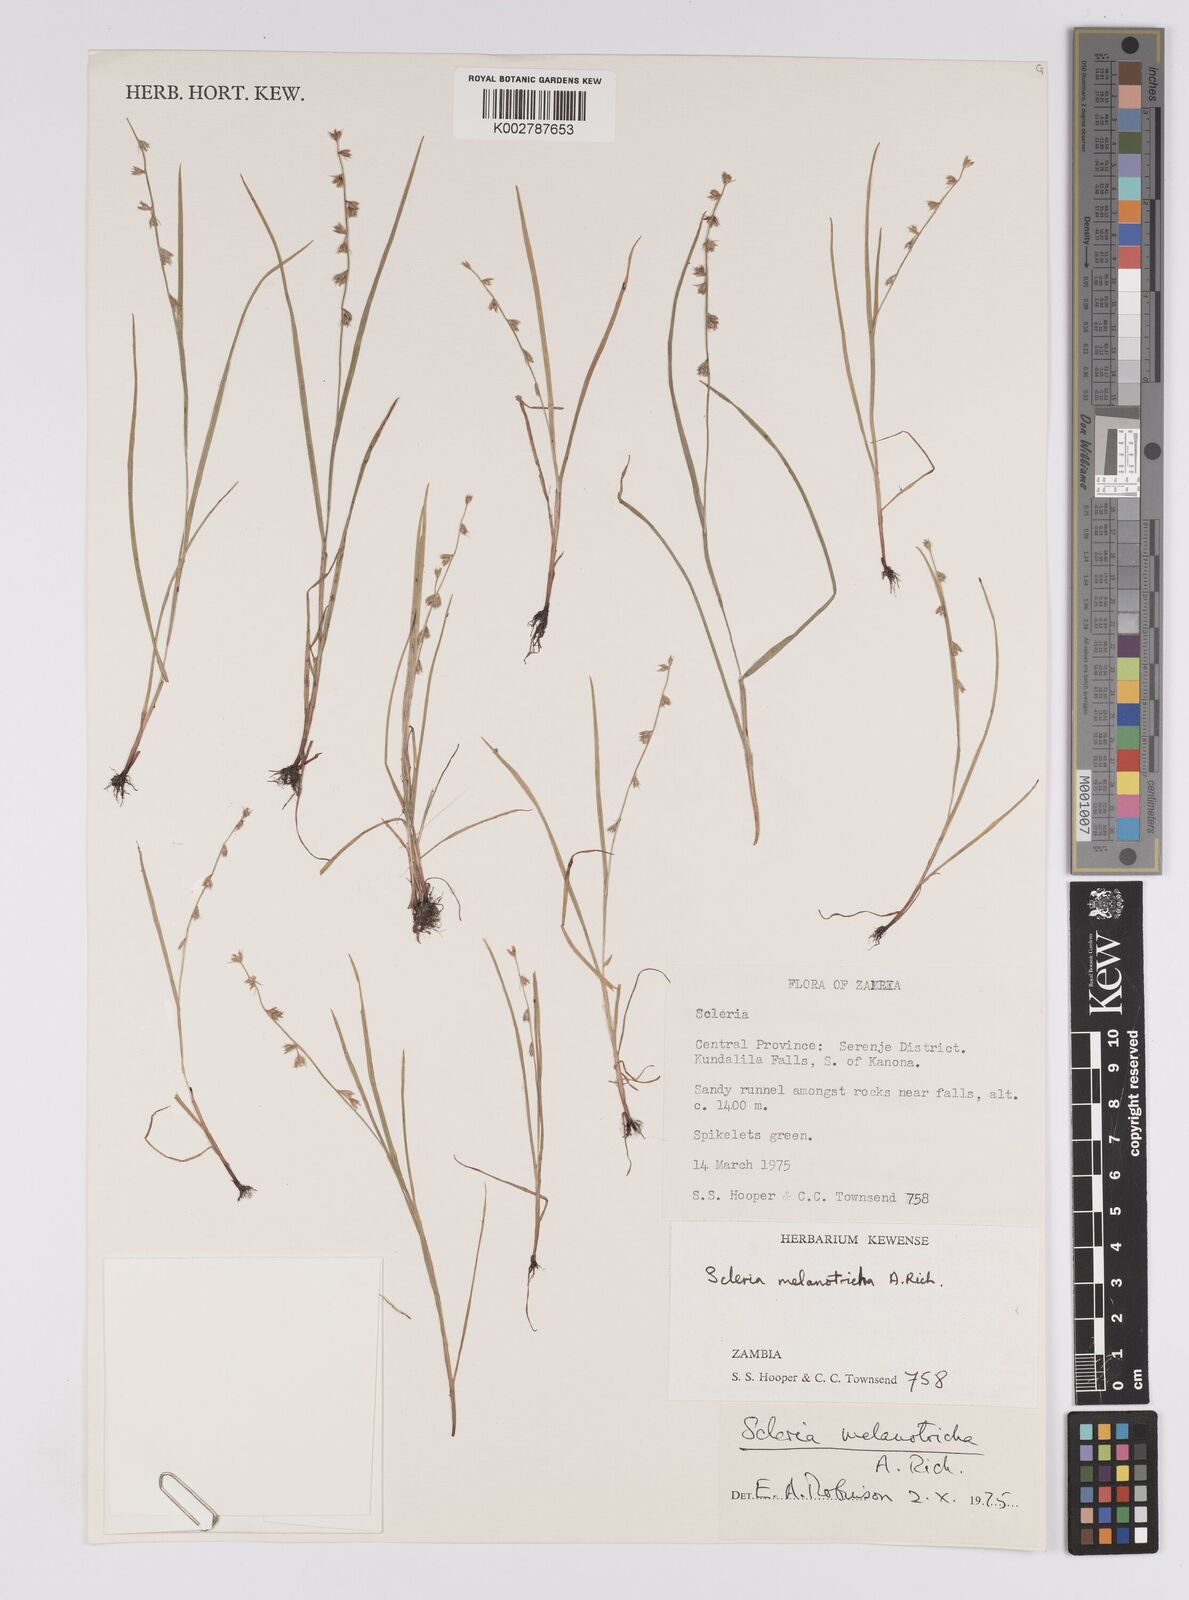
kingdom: Plantae
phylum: Tracheophyta
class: Liliopsida
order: Poales
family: Cyperaceae
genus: Scleria
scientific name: Scleria melanotricha
